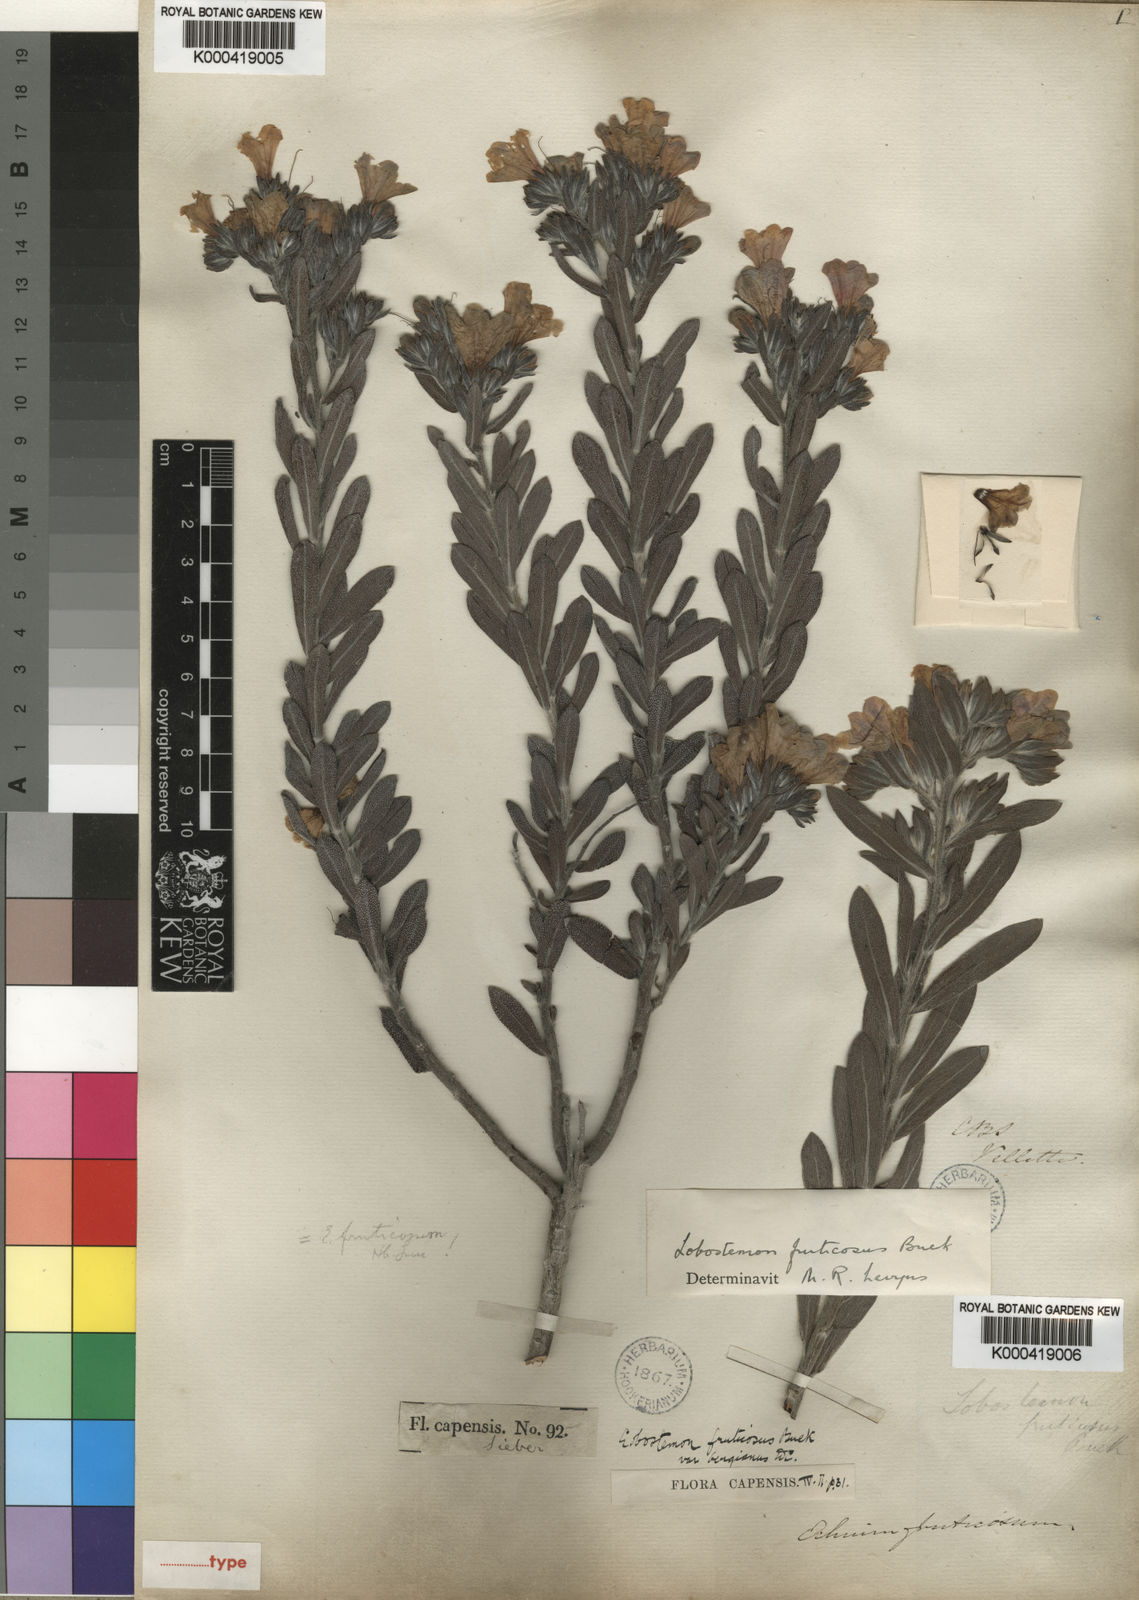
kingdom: Plantae
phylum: Tracheophyta
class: Magnoliopsida
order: Boraginales
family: Boraginaceae
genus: Lobostemon
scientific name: Lobostemon fruticosus
